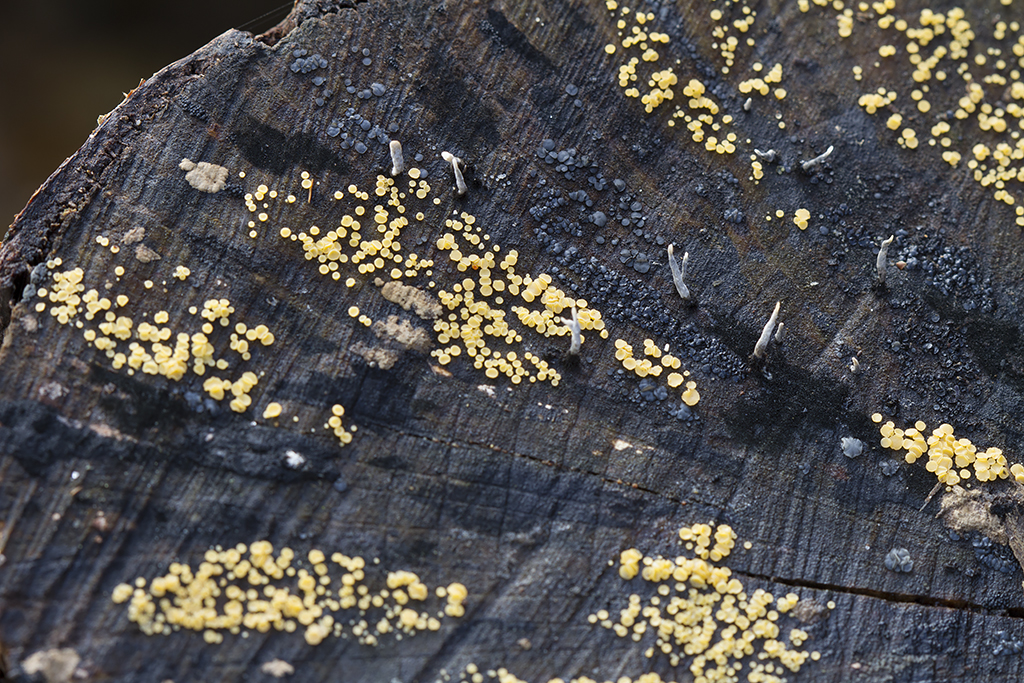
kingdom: Fungi
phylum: Ascomycota
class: Leotiomycetes
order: Helotiales
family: Helotiaceae
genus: Bispora
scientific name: Bispora pallescens
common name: måtte-snitskive
